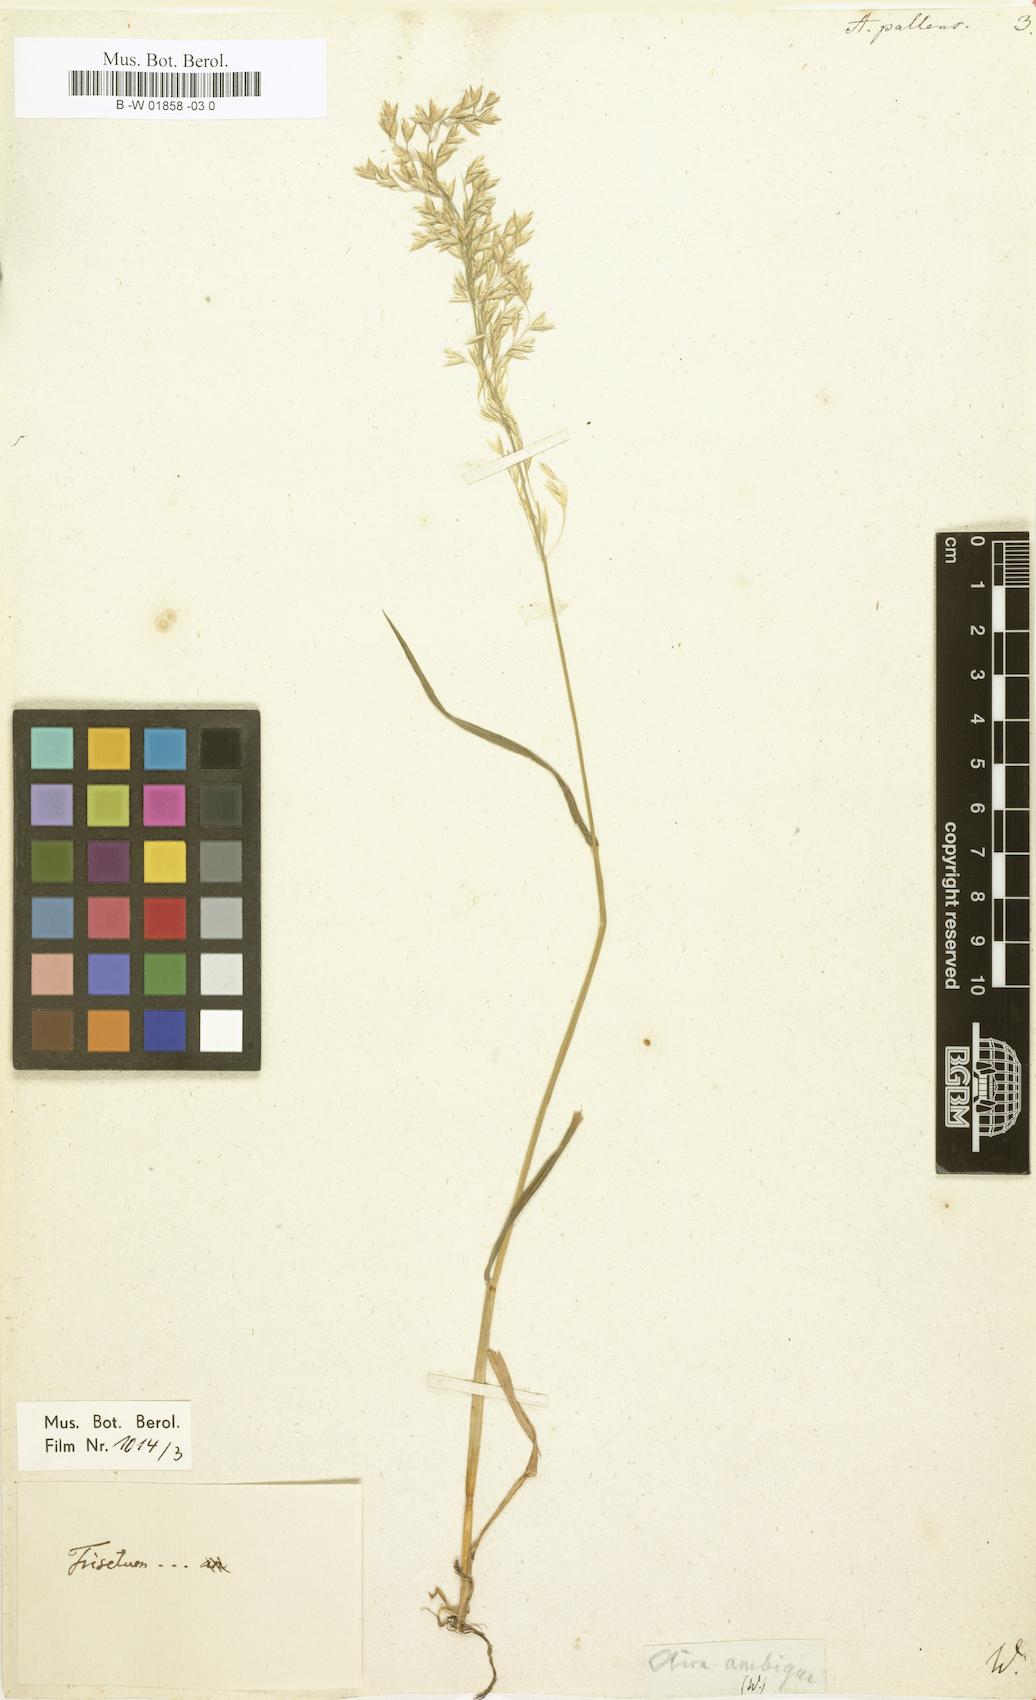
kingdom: Plantae
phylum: Tracheophyta
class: Liliopsida
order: Poales
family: Poaceae
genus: Sphenopholis
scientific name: Sphenopholis pallens
